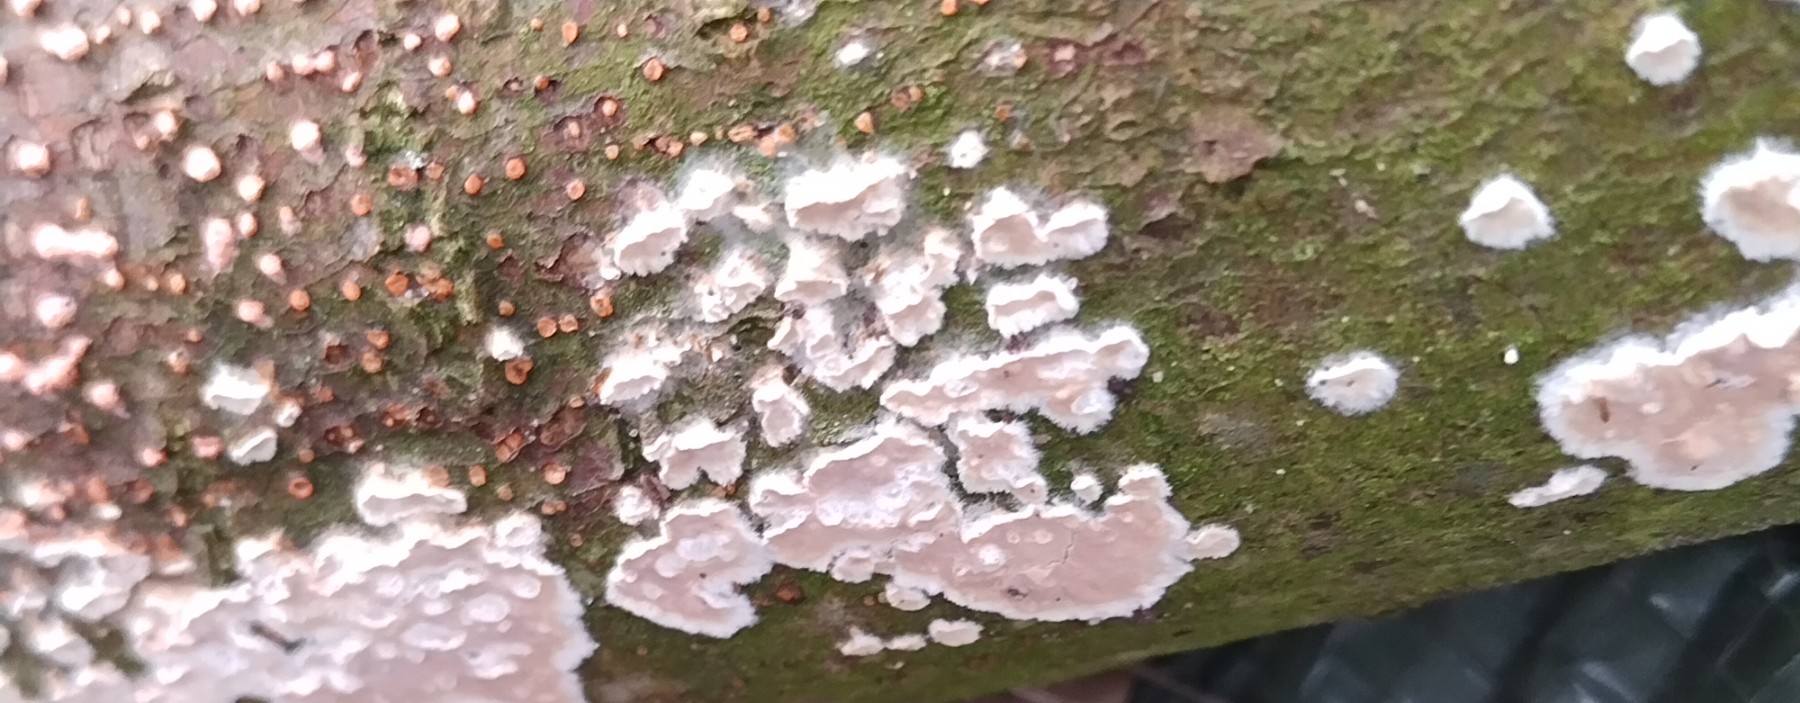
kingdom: Fungi
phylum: Basidiomycota
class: Agaricomycetes
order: Agaricales
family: Physalacriaceae
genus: Cylindrobasidium
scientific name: Cylindrobasidium evolvens
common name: sprækkehinde
